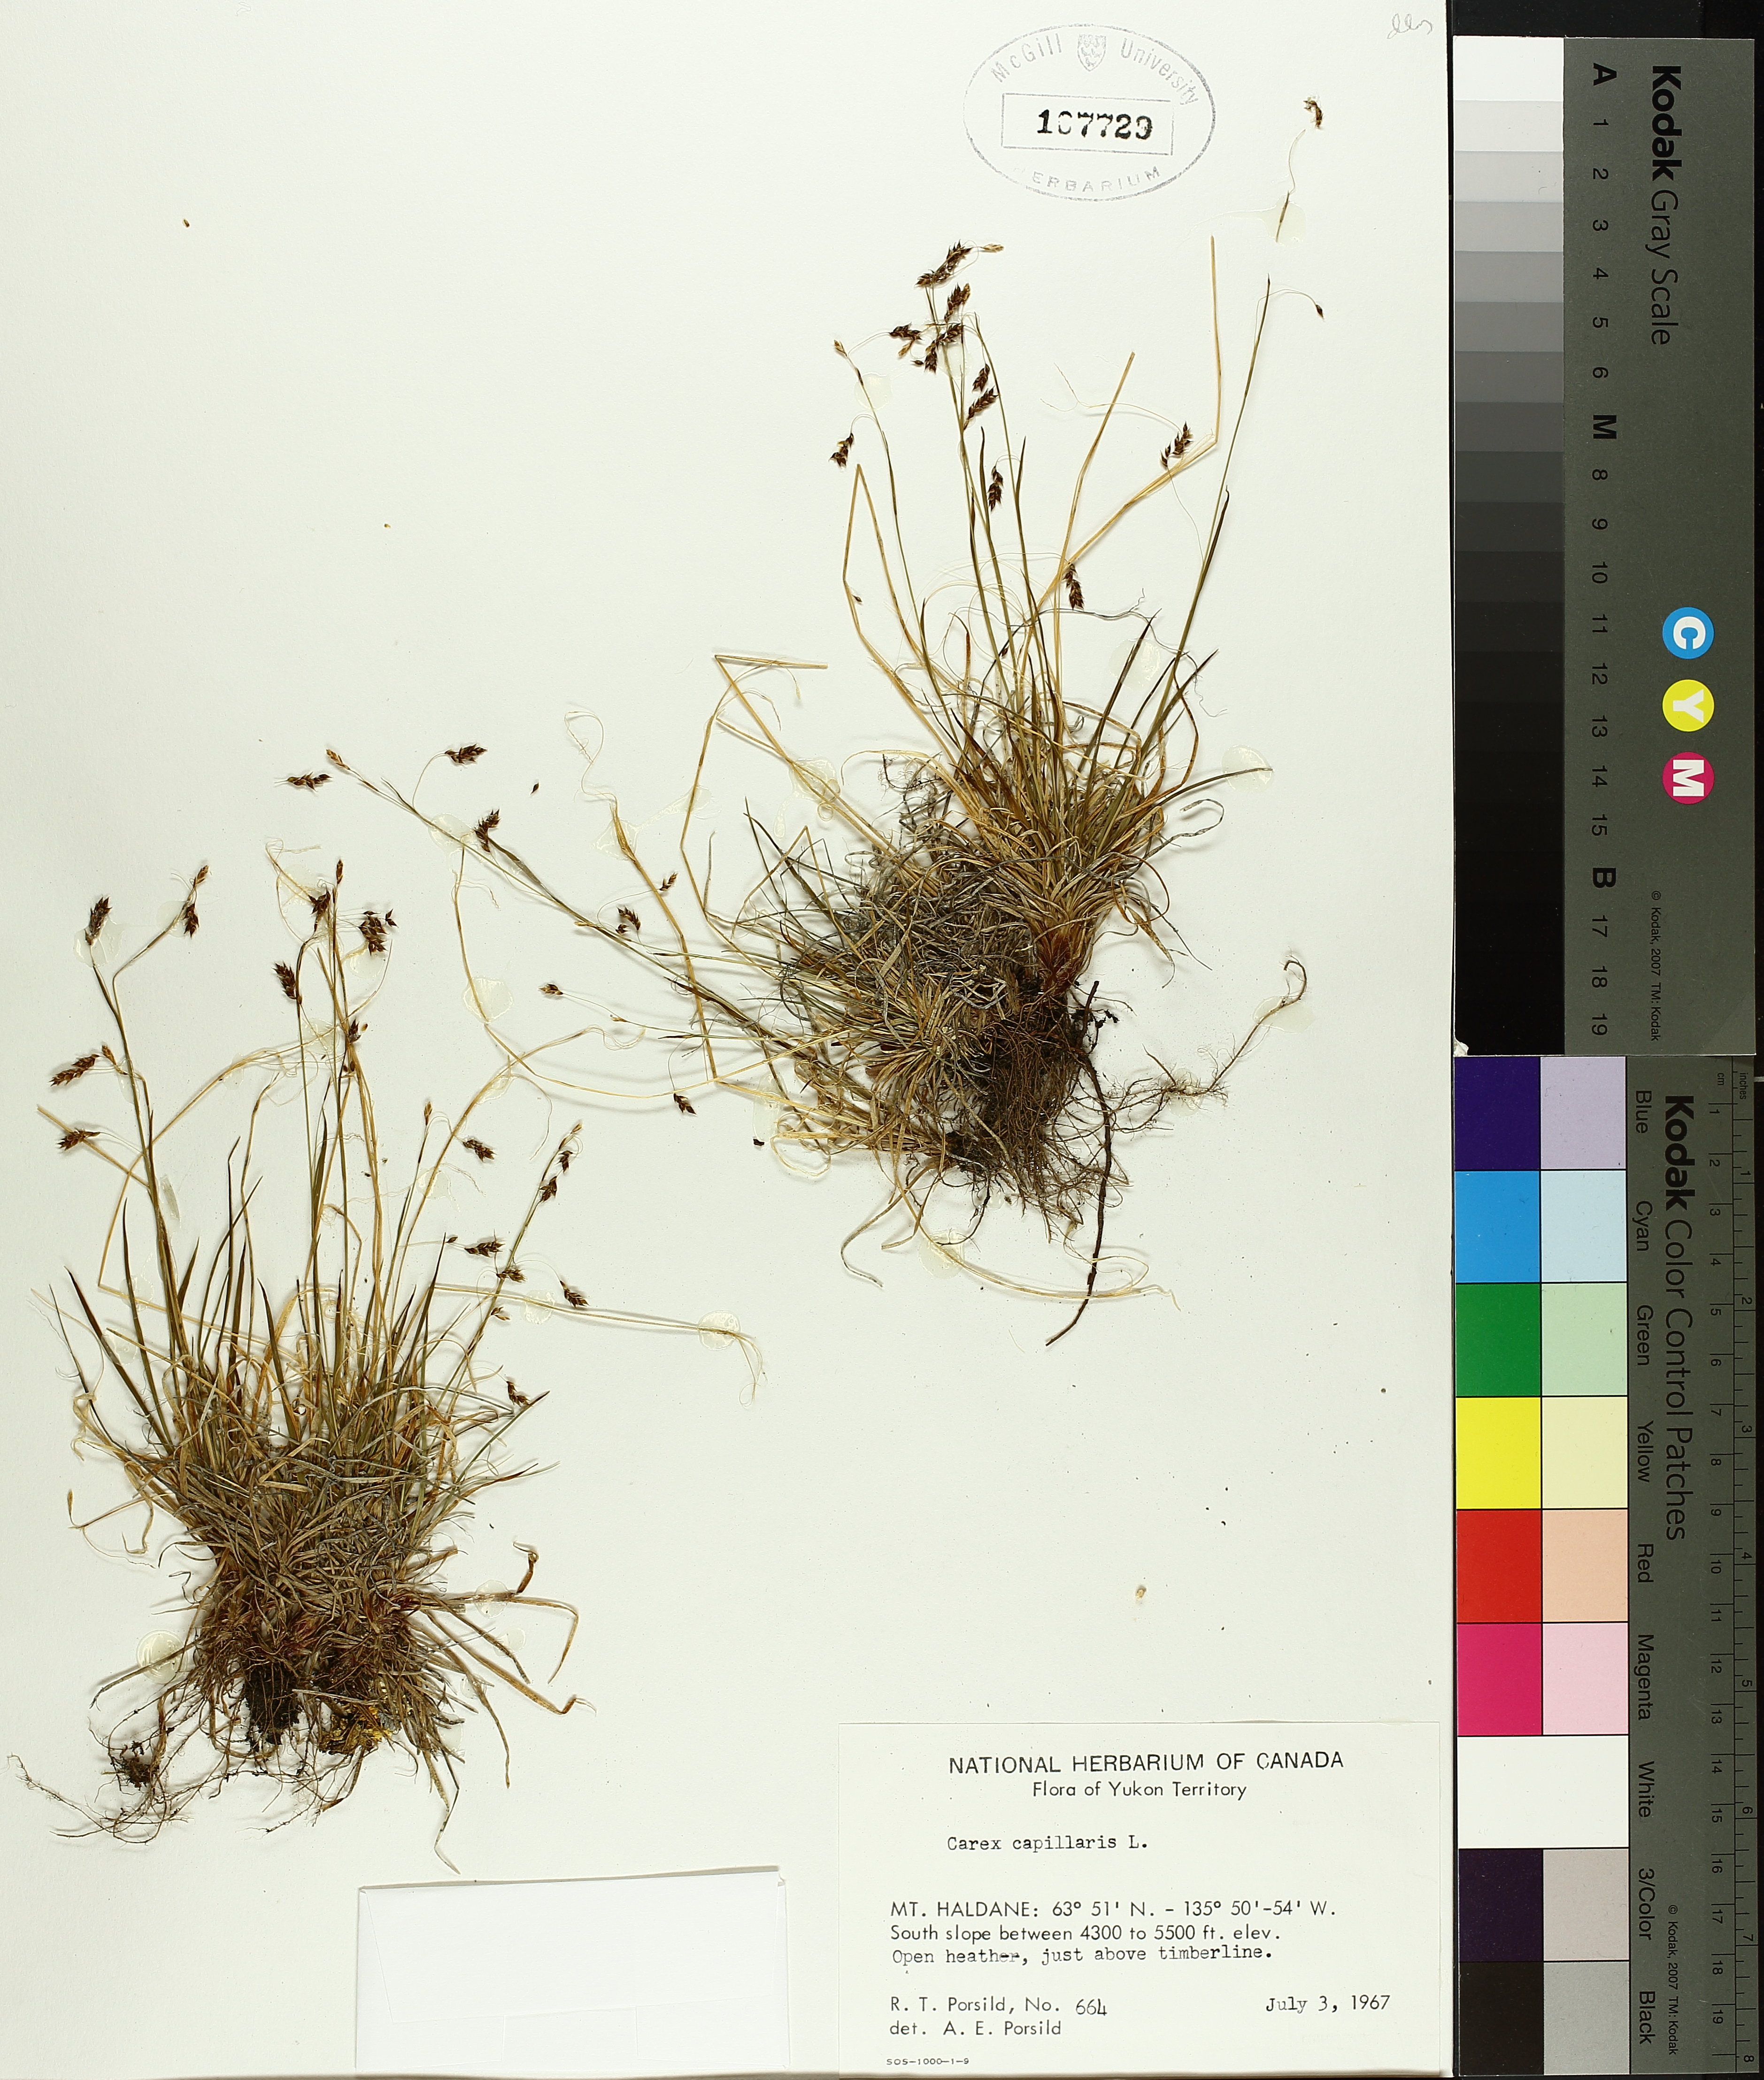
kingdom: Plantae
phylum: Tracheophyta
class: Liliopsida
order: Poales
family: Cyperaceae
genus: Carex
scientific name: Carex capillaris
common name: Hair sedge
